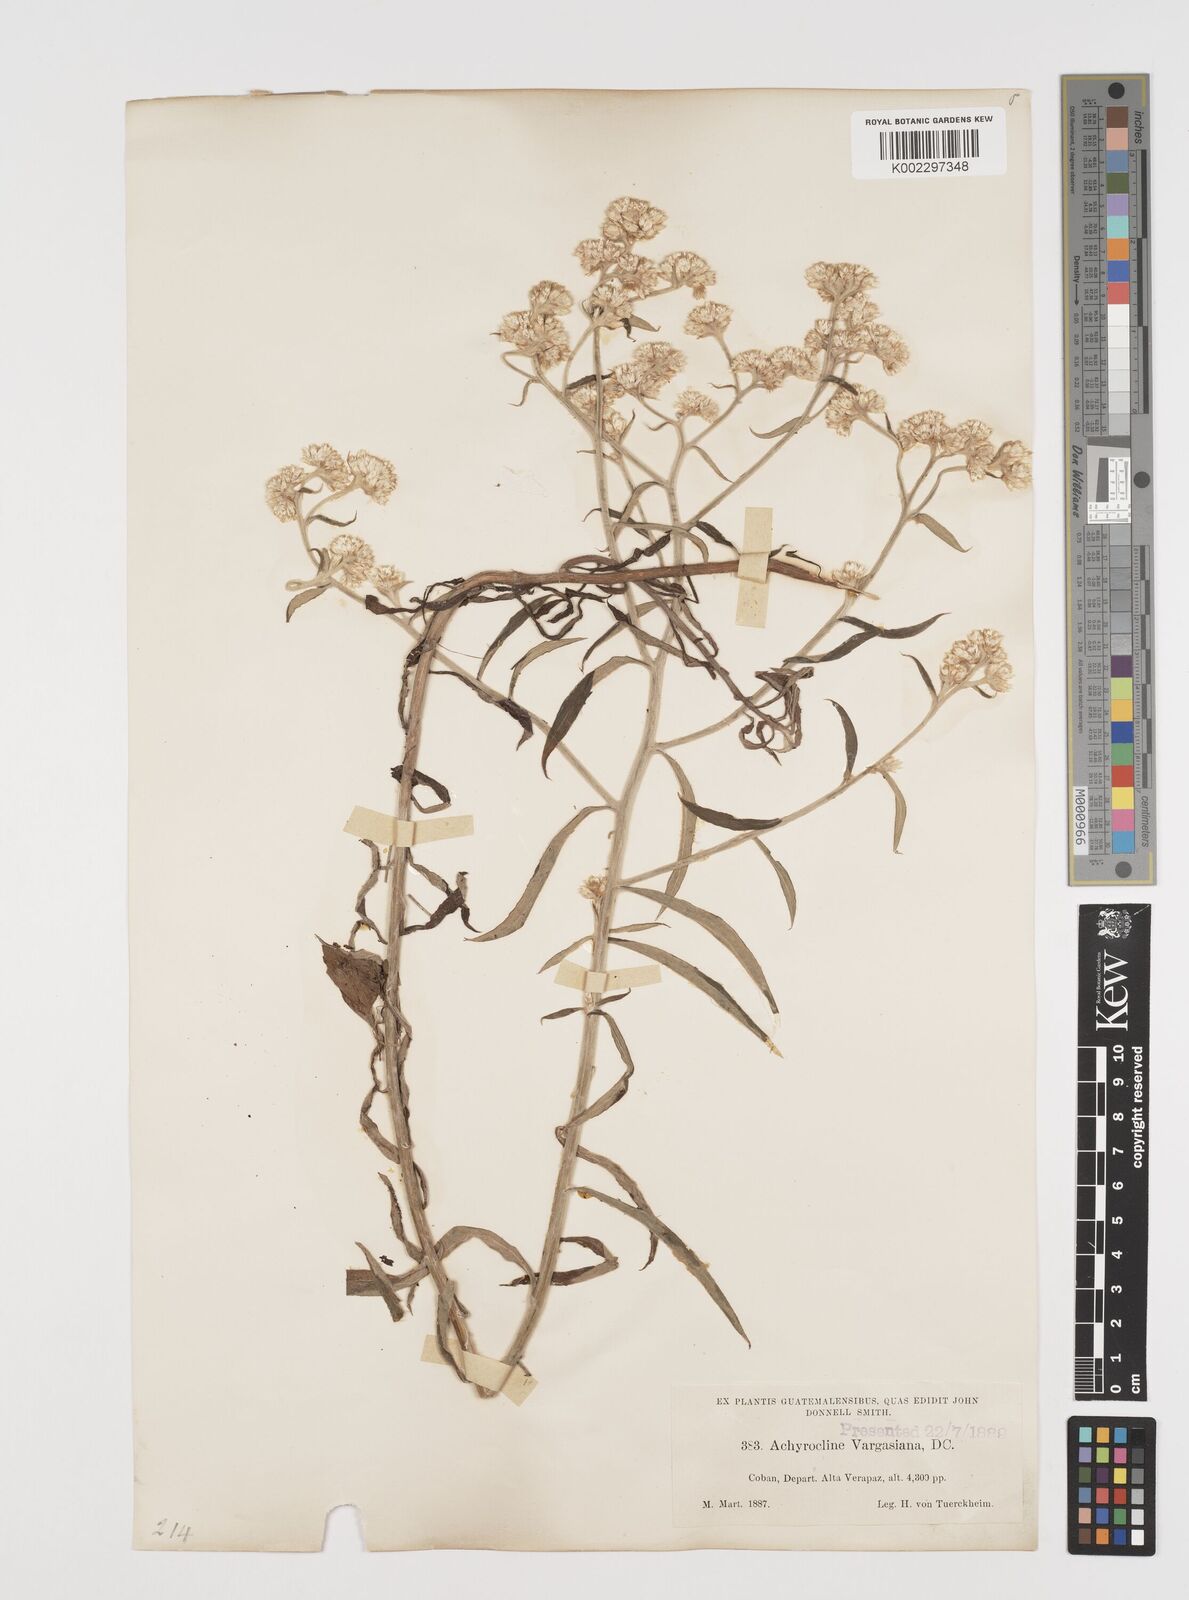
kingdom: Plantae
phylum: Tracheophyta
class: Magnoliopsida
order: Asterales
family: Asteraceae
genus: Achyrocline
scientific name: Achyrocline vargasiana
